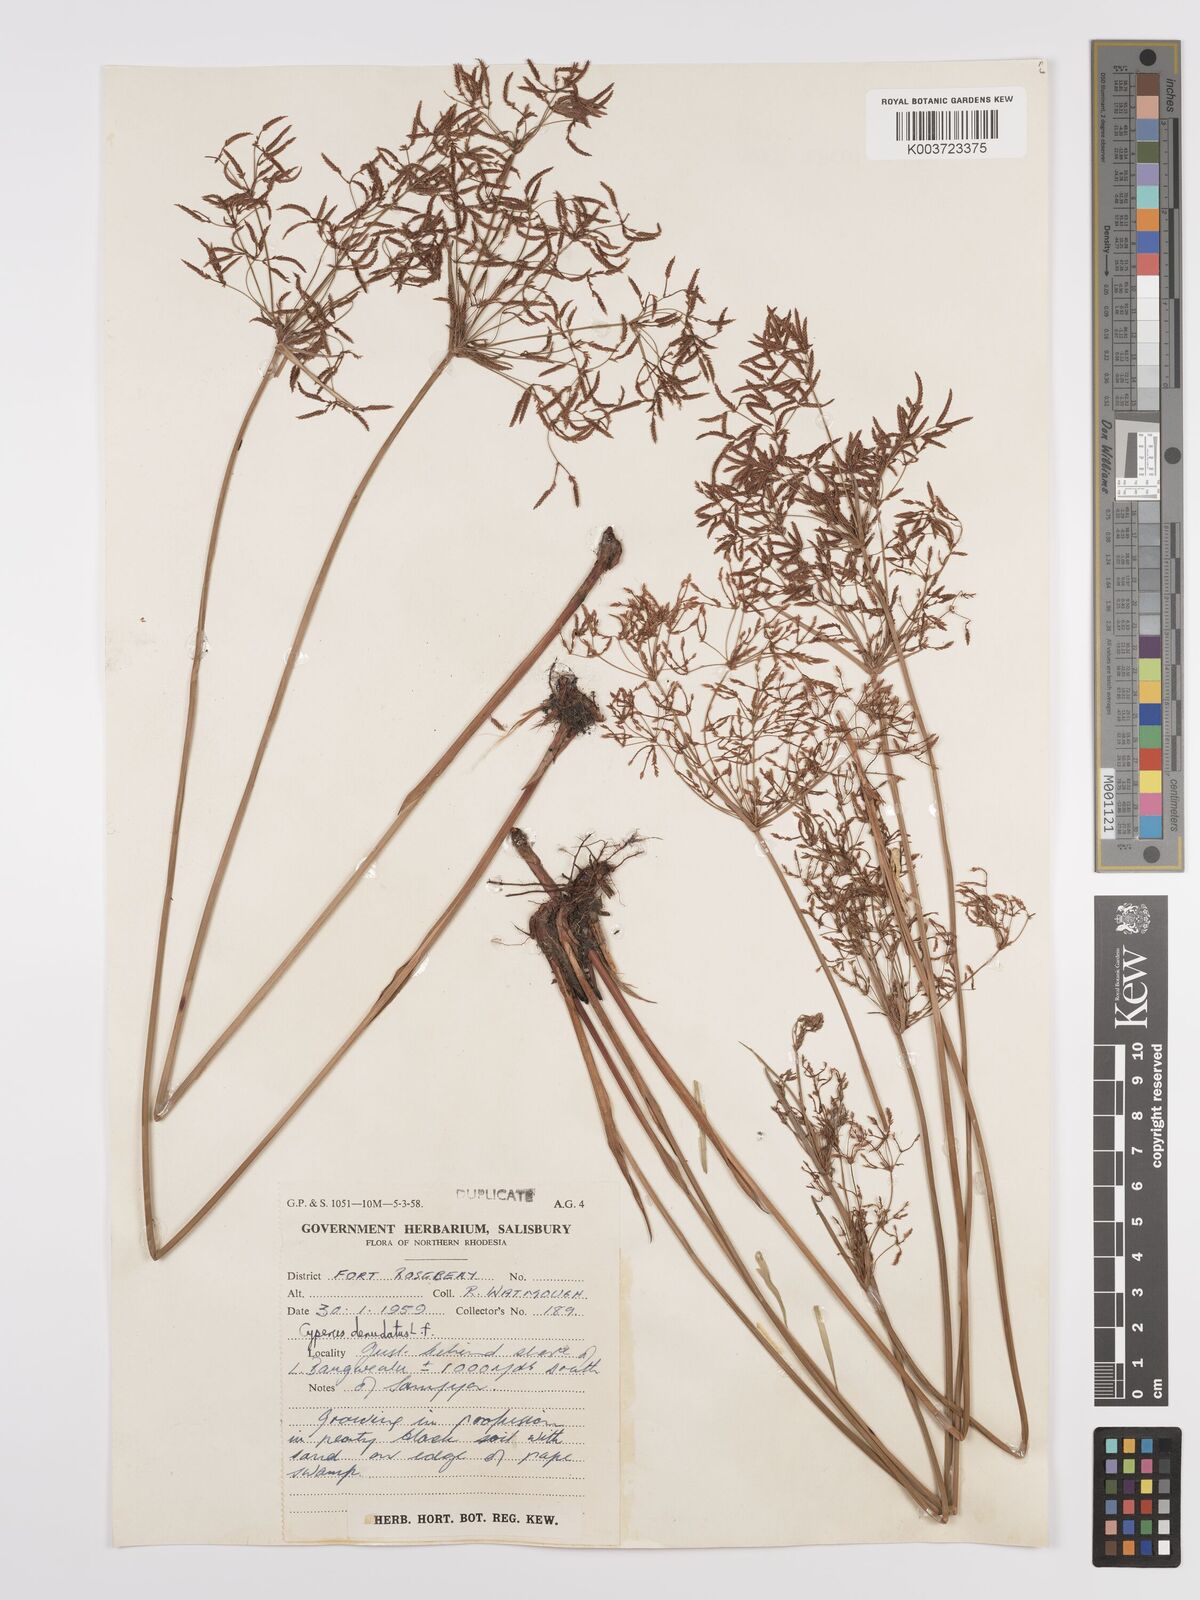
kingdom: Plantae
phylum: Tracheophyta
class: Liliopsida
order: Poales
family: Cyperaceae
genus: Cyperus
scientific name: Cyperus denudatus
